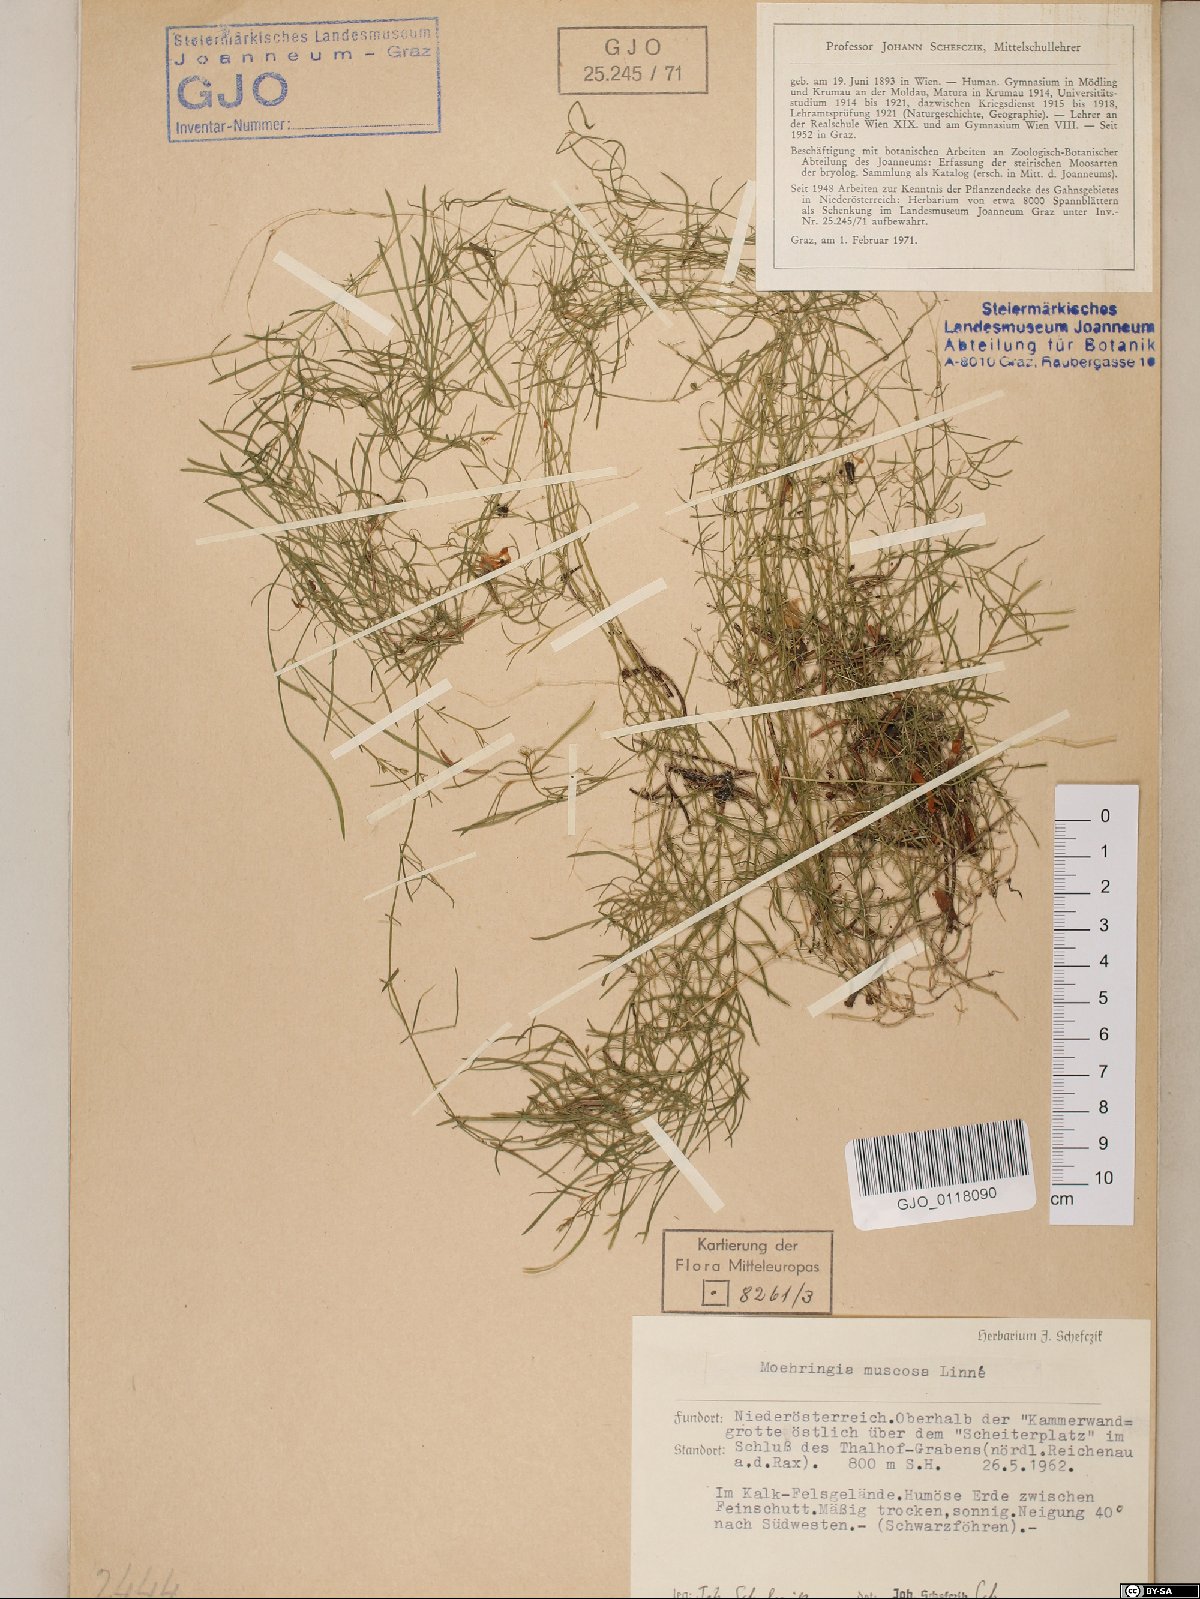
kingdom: Plantae
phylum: Tracheophyta
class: Magnoliopsida
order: Caryophyllales
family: Caryophyllaceae
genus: Moehringia
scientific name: Moehringia muscosa
